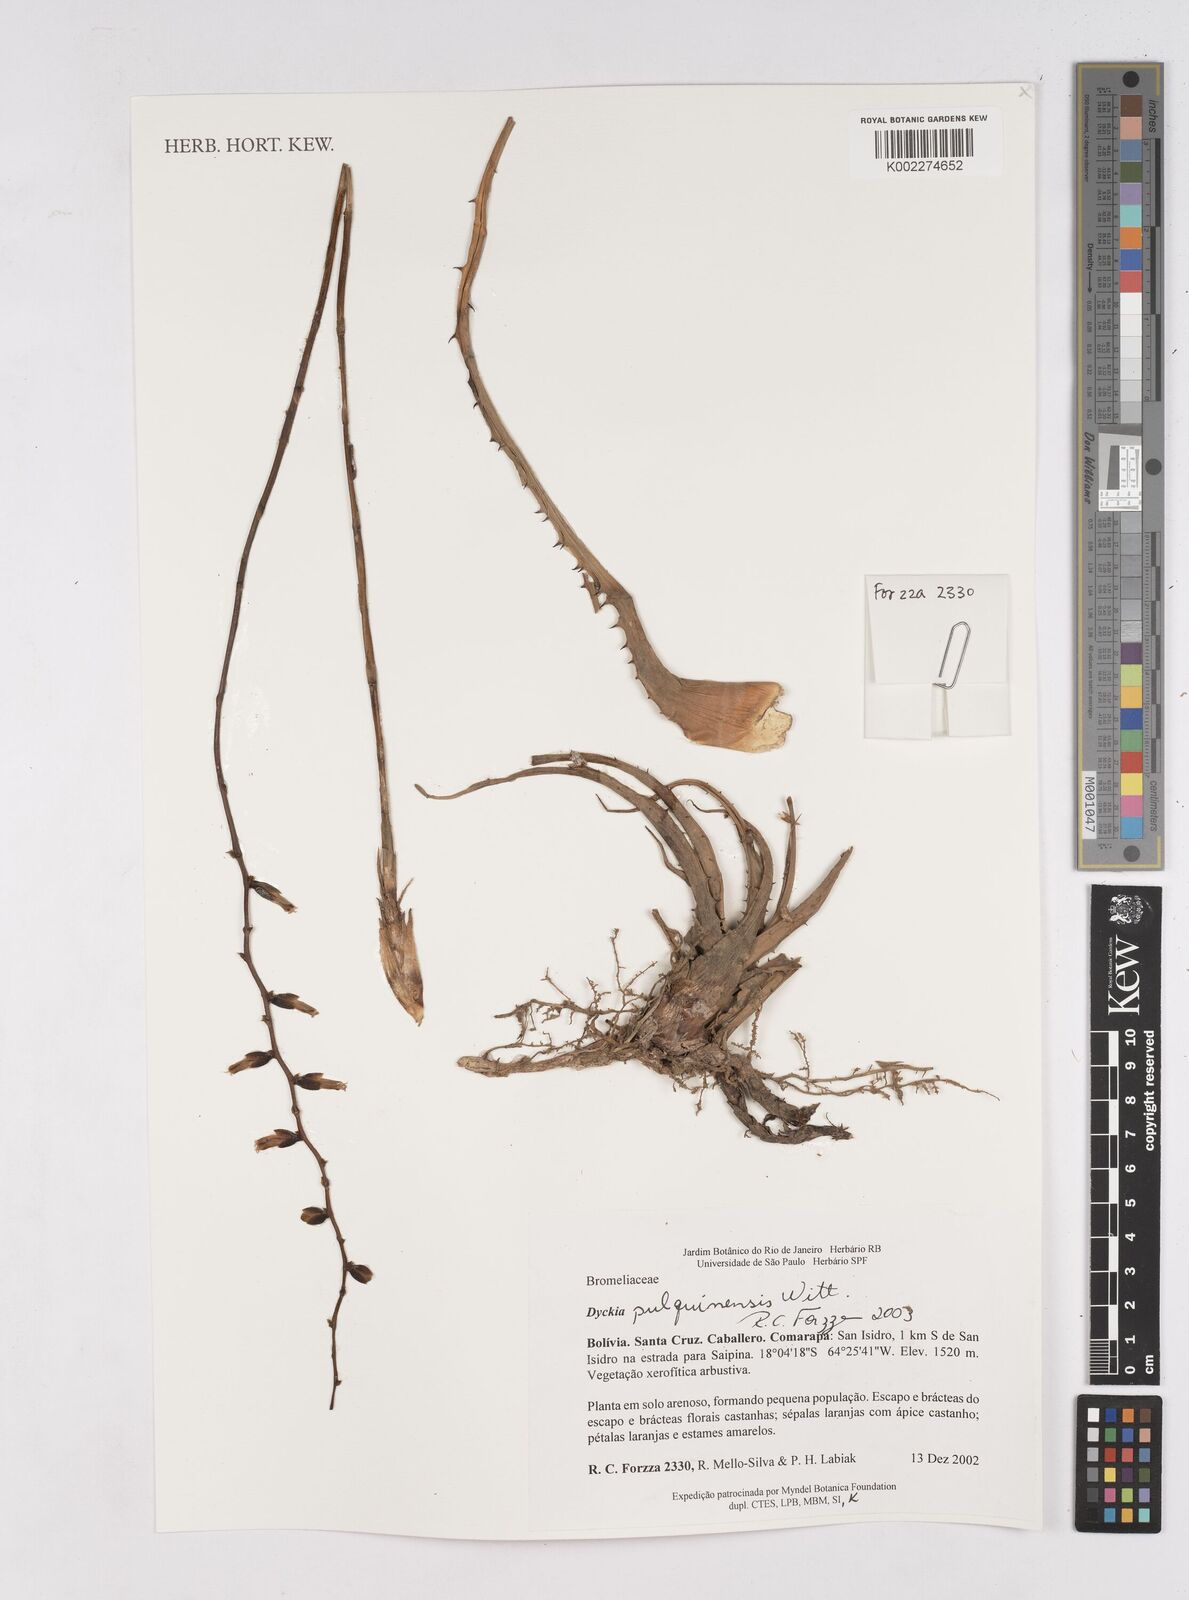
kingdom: Plantae
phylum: Tracheophyta
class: Liliopsida
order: Poales
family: Bromeliaceae
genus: Dyckia
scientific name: Dyckia pulquinensis
